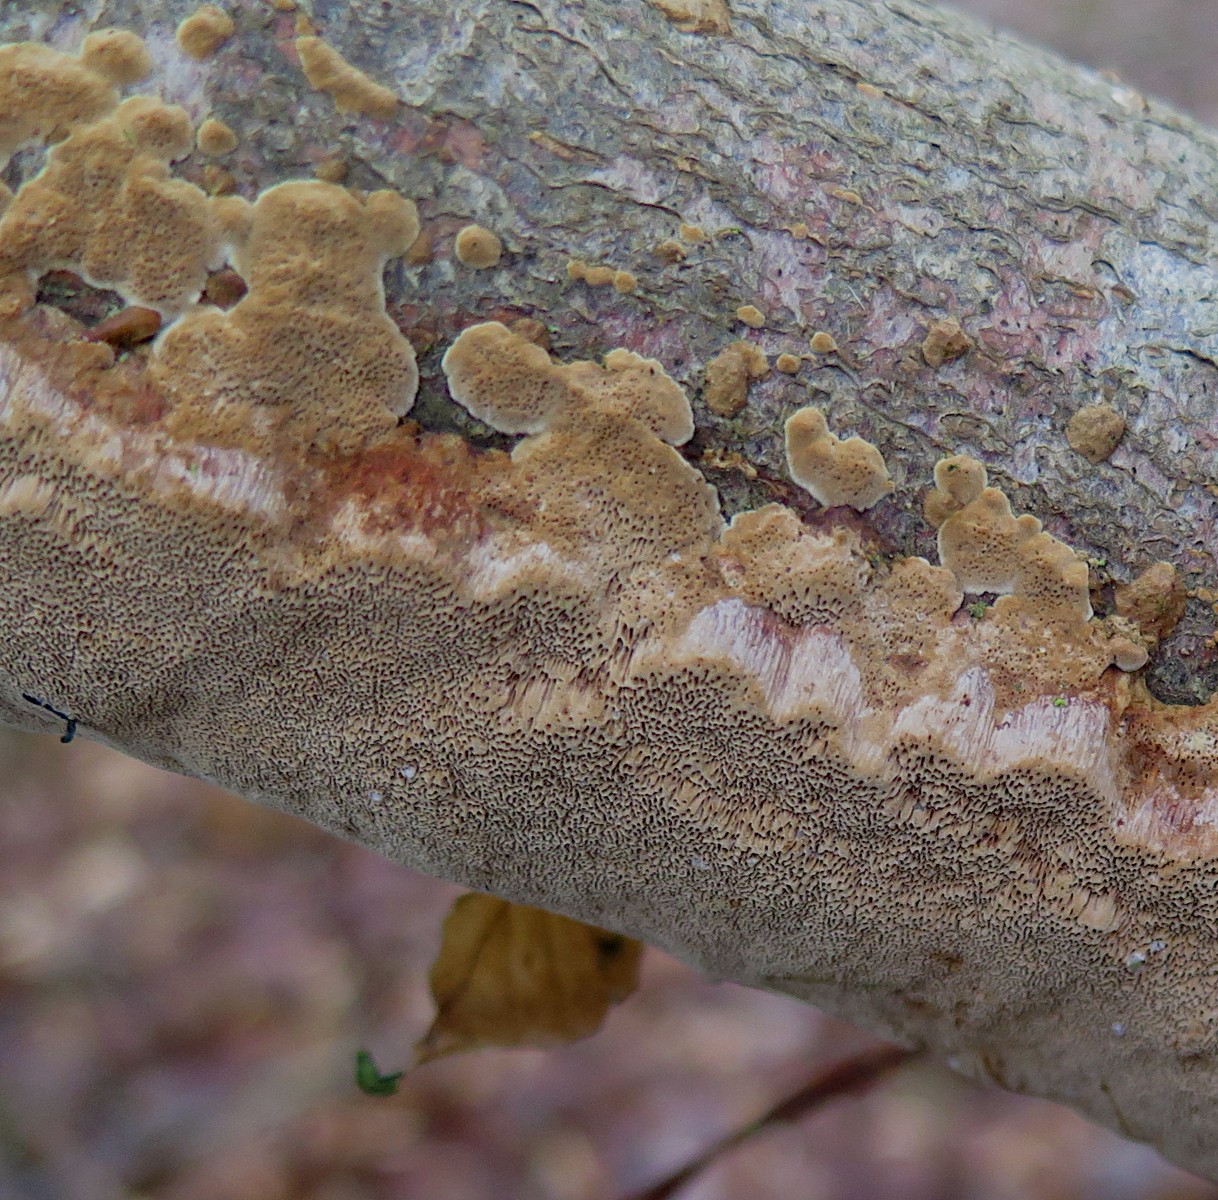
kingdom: Fungi
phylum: Basidiomycota
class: Agaricomycetes
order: Hymenochaetales
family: Hymenochaetaceae
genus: Fuscoporia
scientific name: Fuscoporia ferrea
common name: skorpe-ildporesvamp
